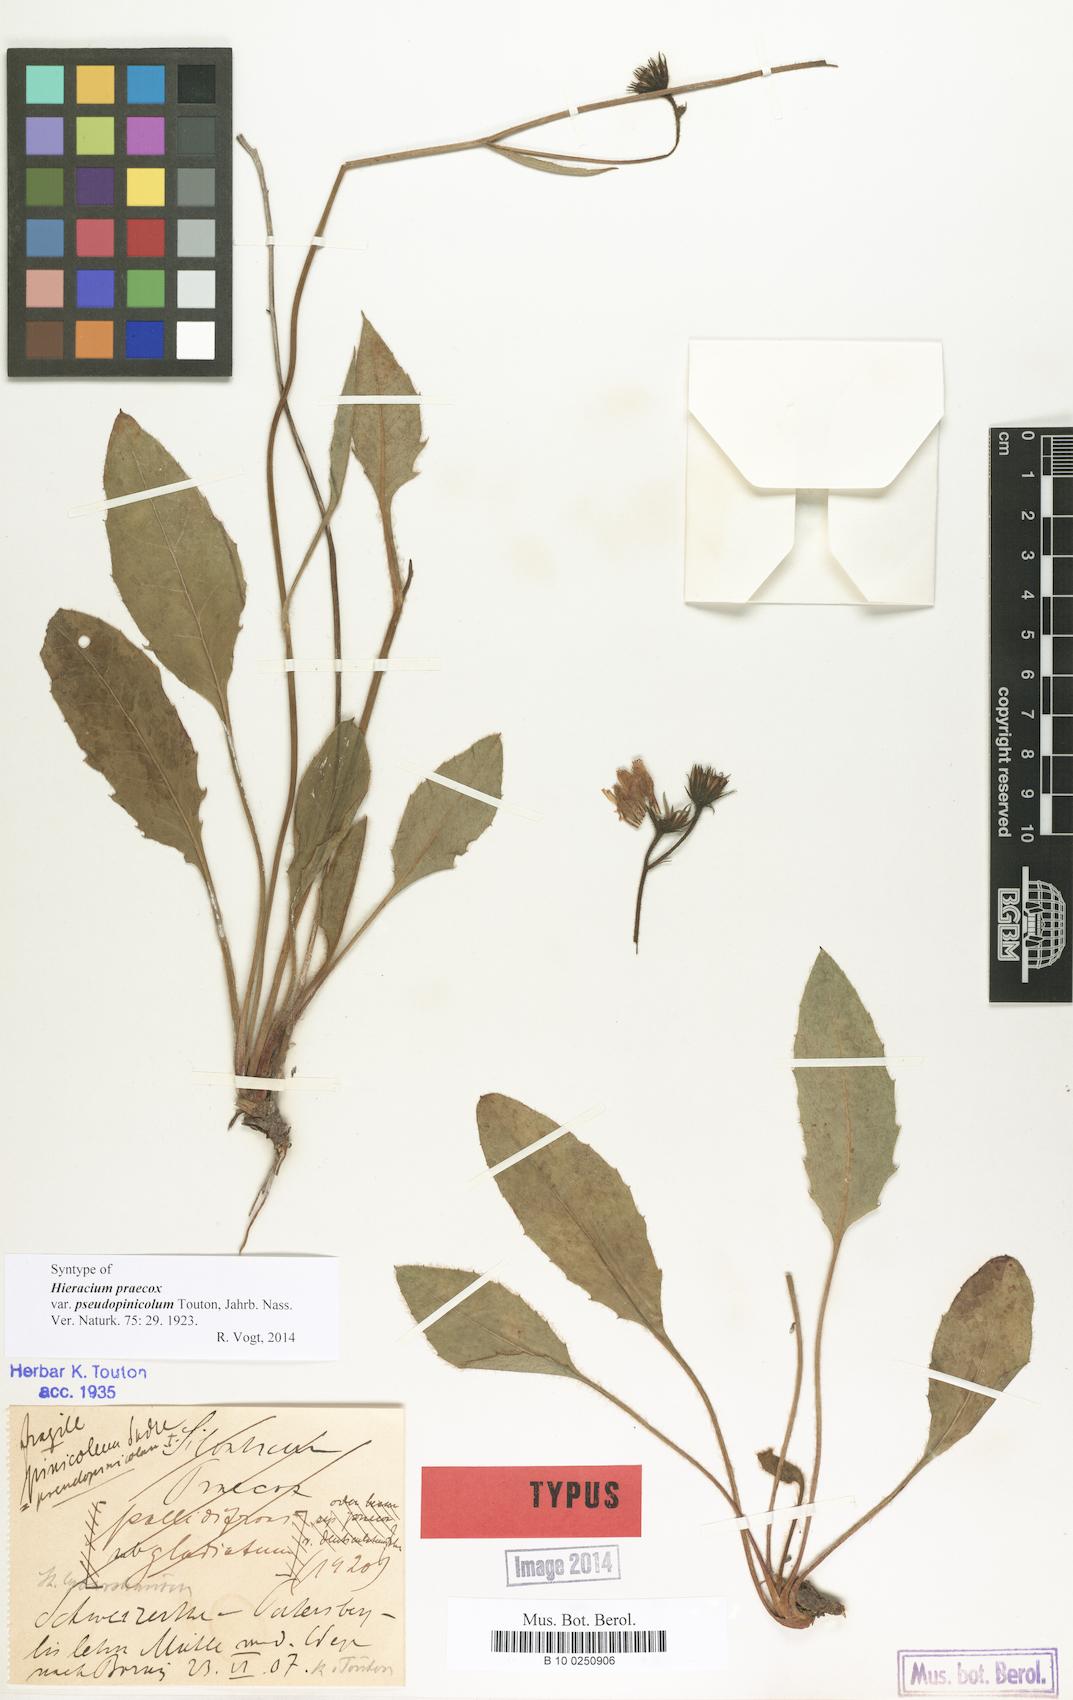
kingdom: Plantae
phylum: Tracheophyta
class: Magnoliopsida
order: Asterales
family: Asteraceae
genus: Hieracium
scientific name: Hieracium praecox
